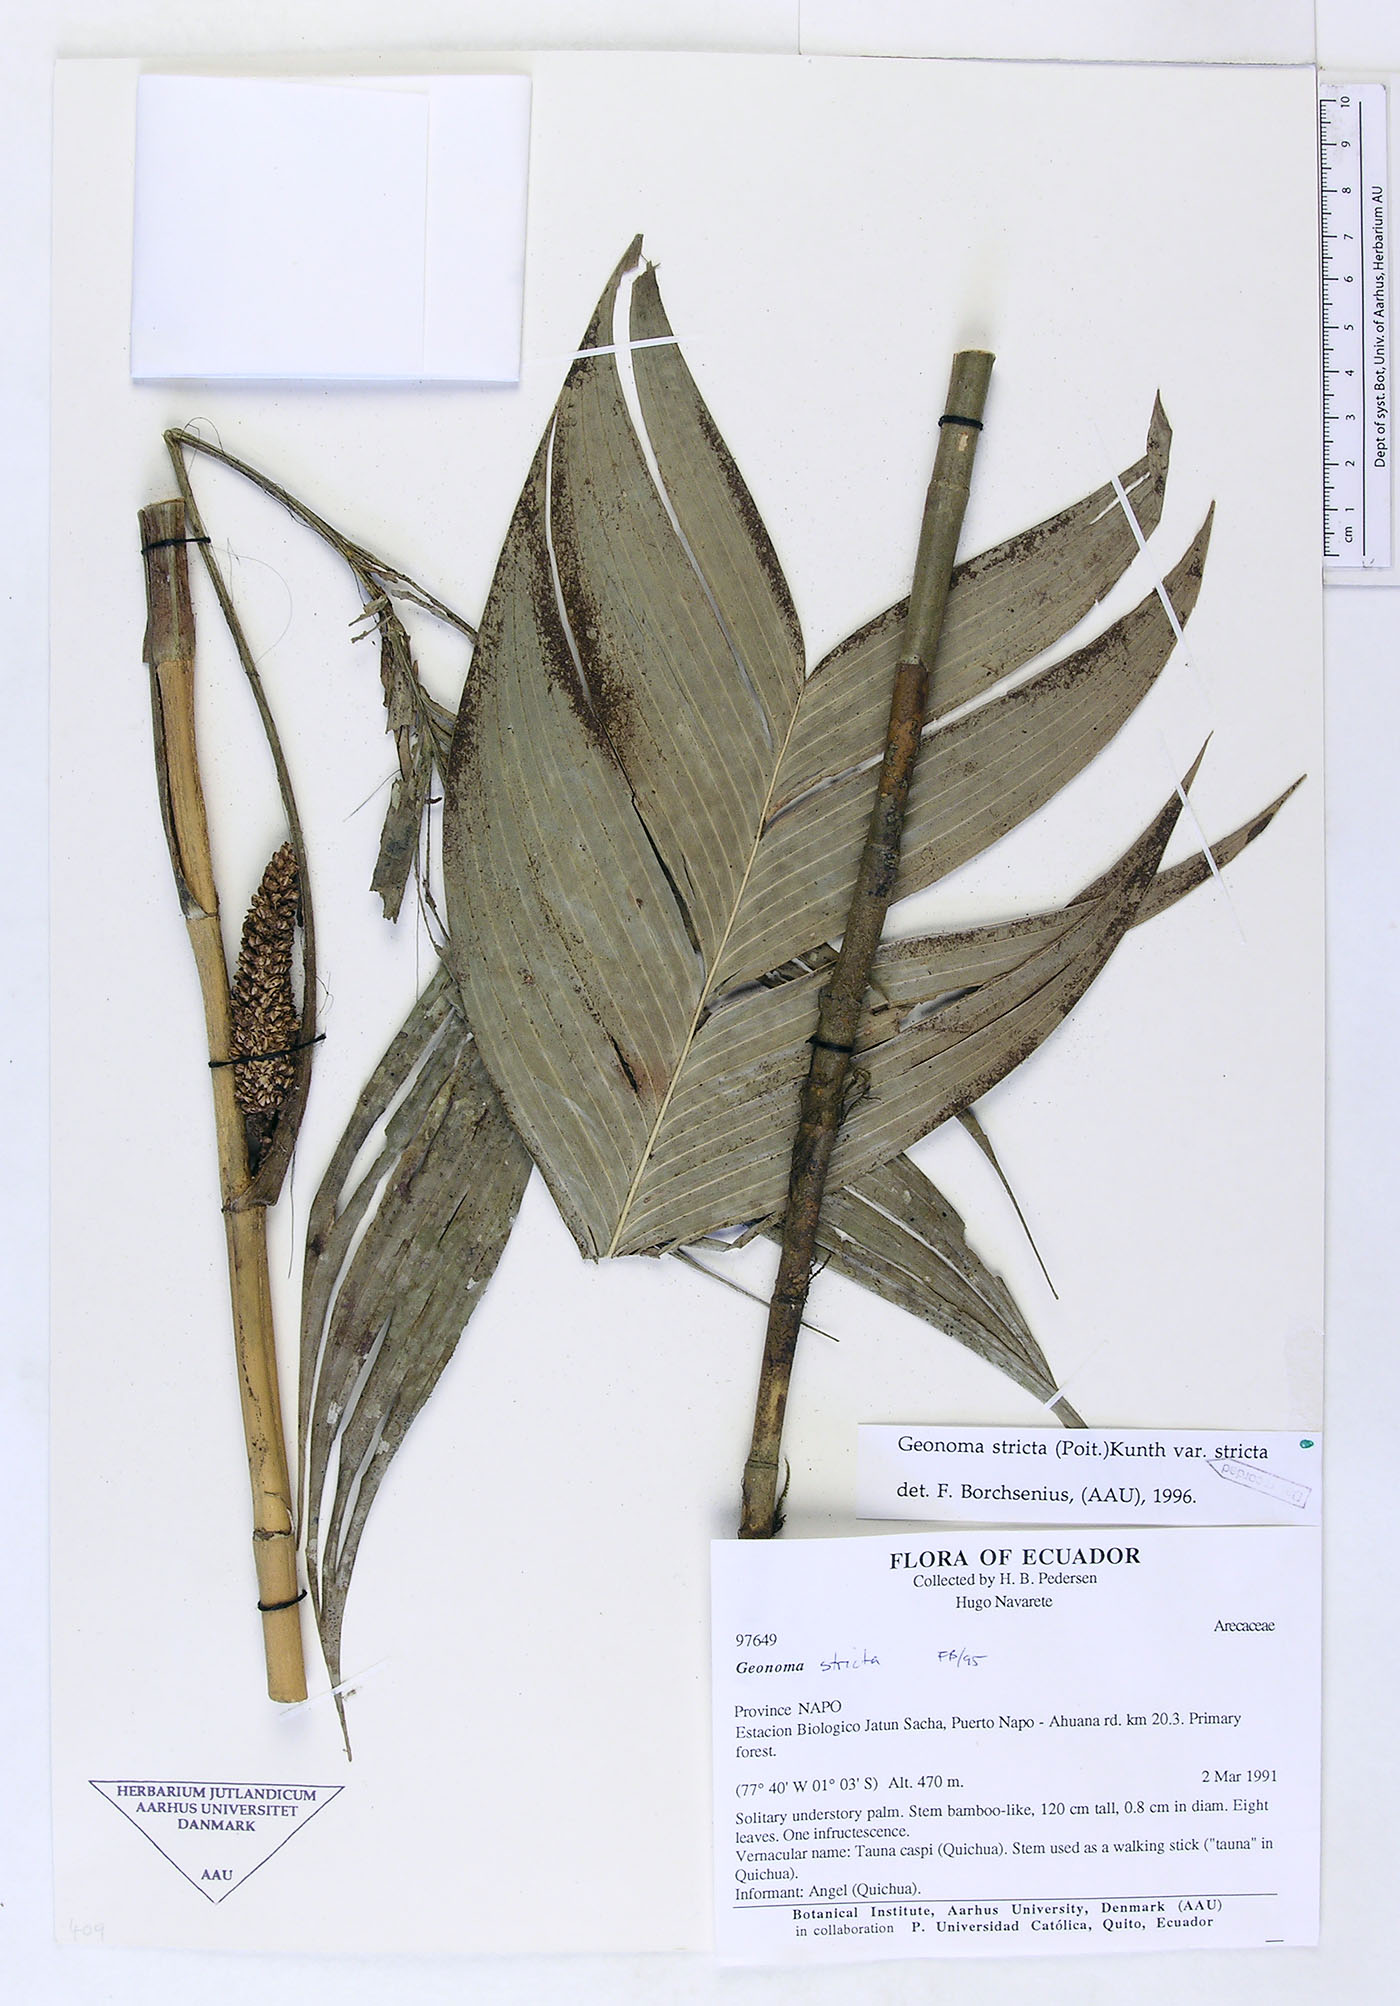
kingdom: Plantae
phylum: Tracheophyta
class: Liliopsida
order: Arecales
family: Arecaceae
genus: Geonoma
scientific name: Geonoma stricta
